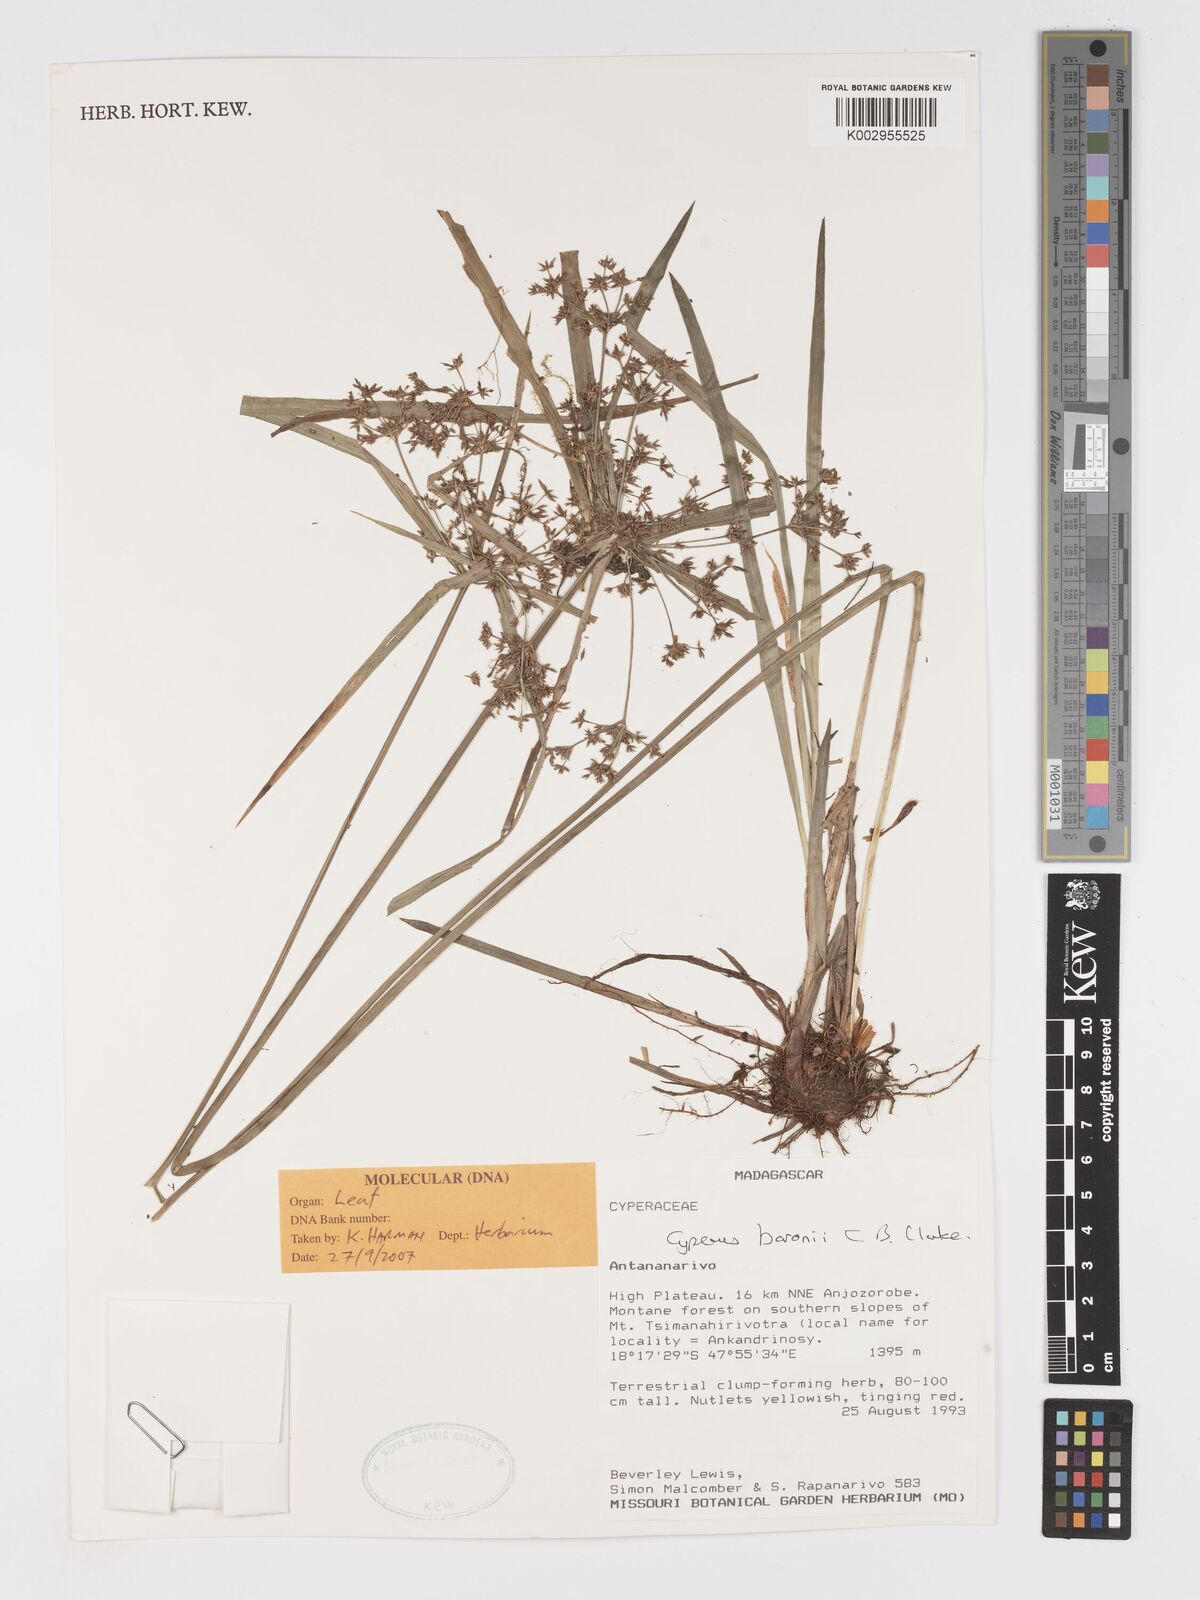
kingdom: Plantae
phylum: Tracheophyta
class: Liliopsida
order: Poales
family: Cyperaceae
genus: Cyperus
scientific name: Cyperus baronii
